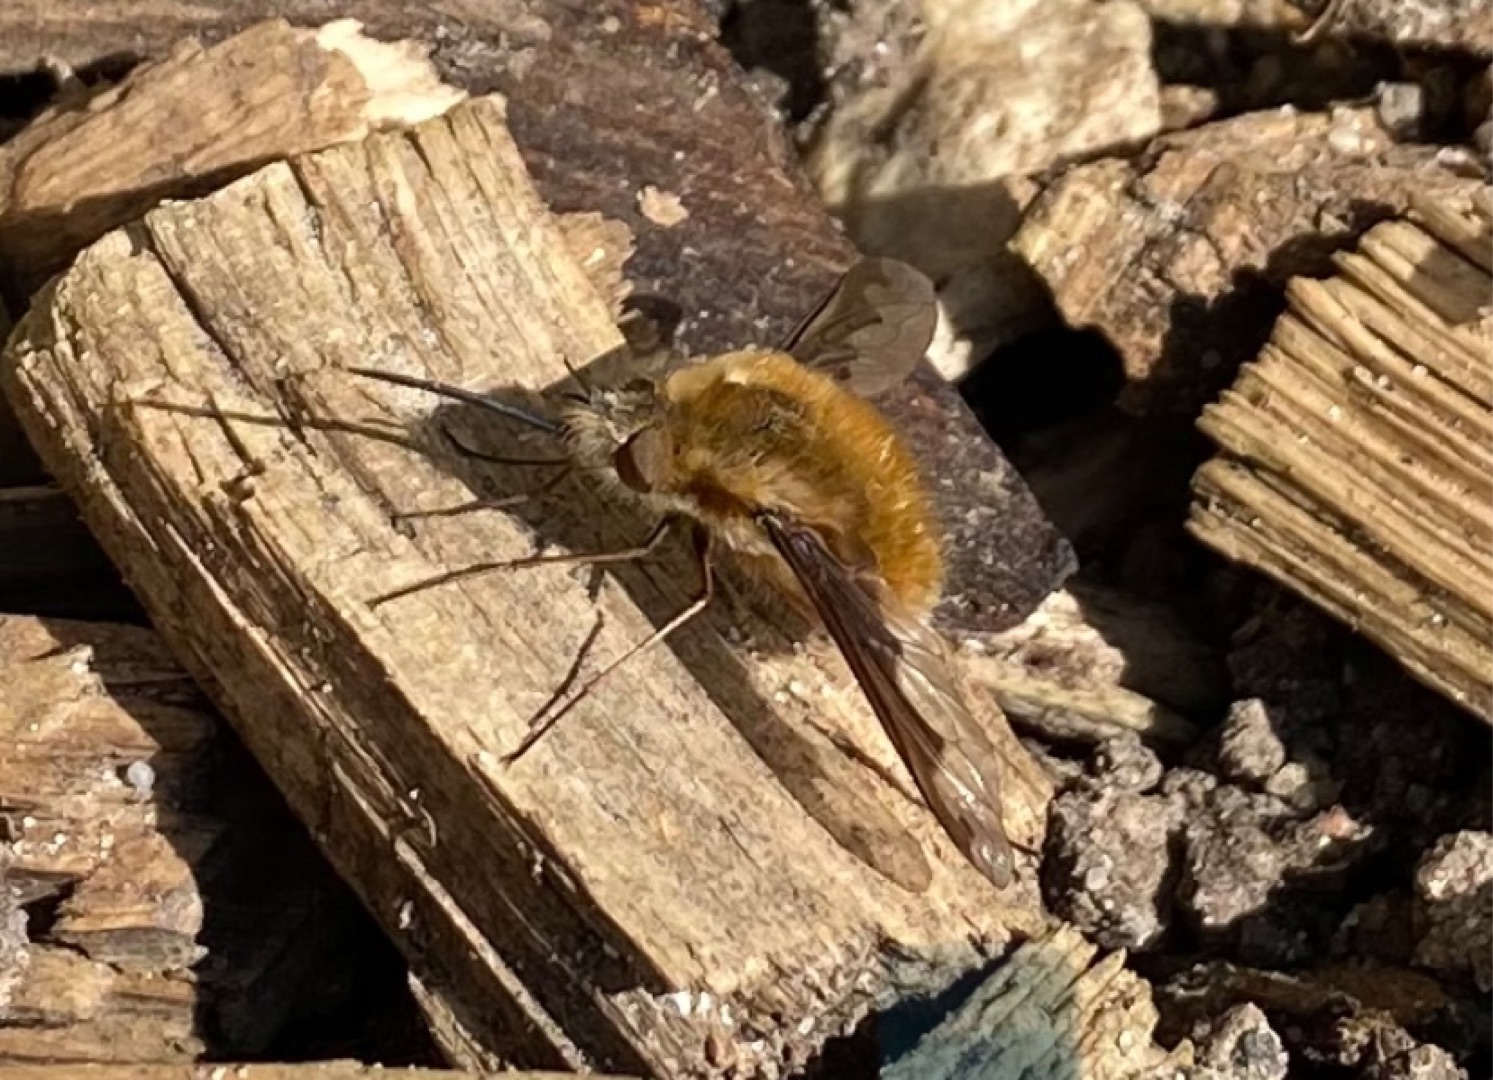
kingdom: Animalia
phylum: Arthropoda
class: Insecta
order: Diptera
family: Bombyliidae
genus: Bombylius
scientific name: Bombylius major
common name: Stor humleflue
